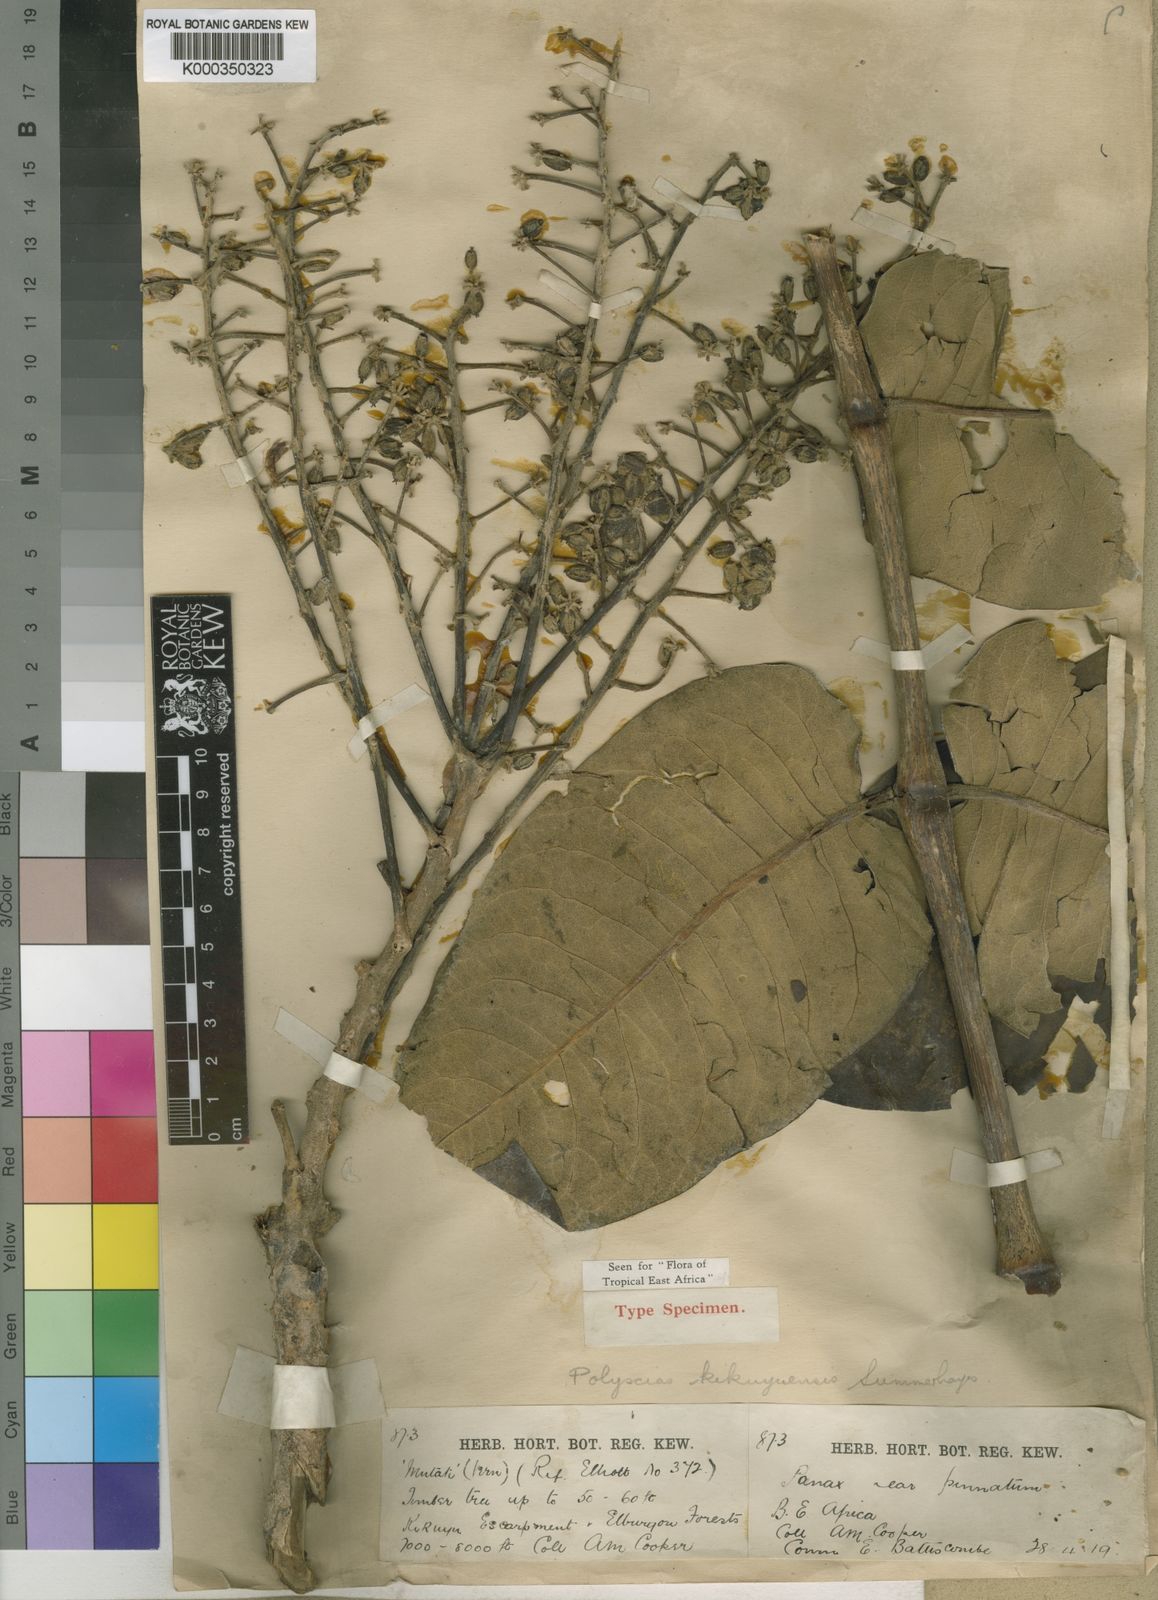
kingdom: Plantae
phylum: Tracheophyta
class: Magnoliopsida
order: Apiales
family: Araliaceae
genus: Polyscias
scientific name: Polyscias kikuyuensis
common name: Parasol tree
